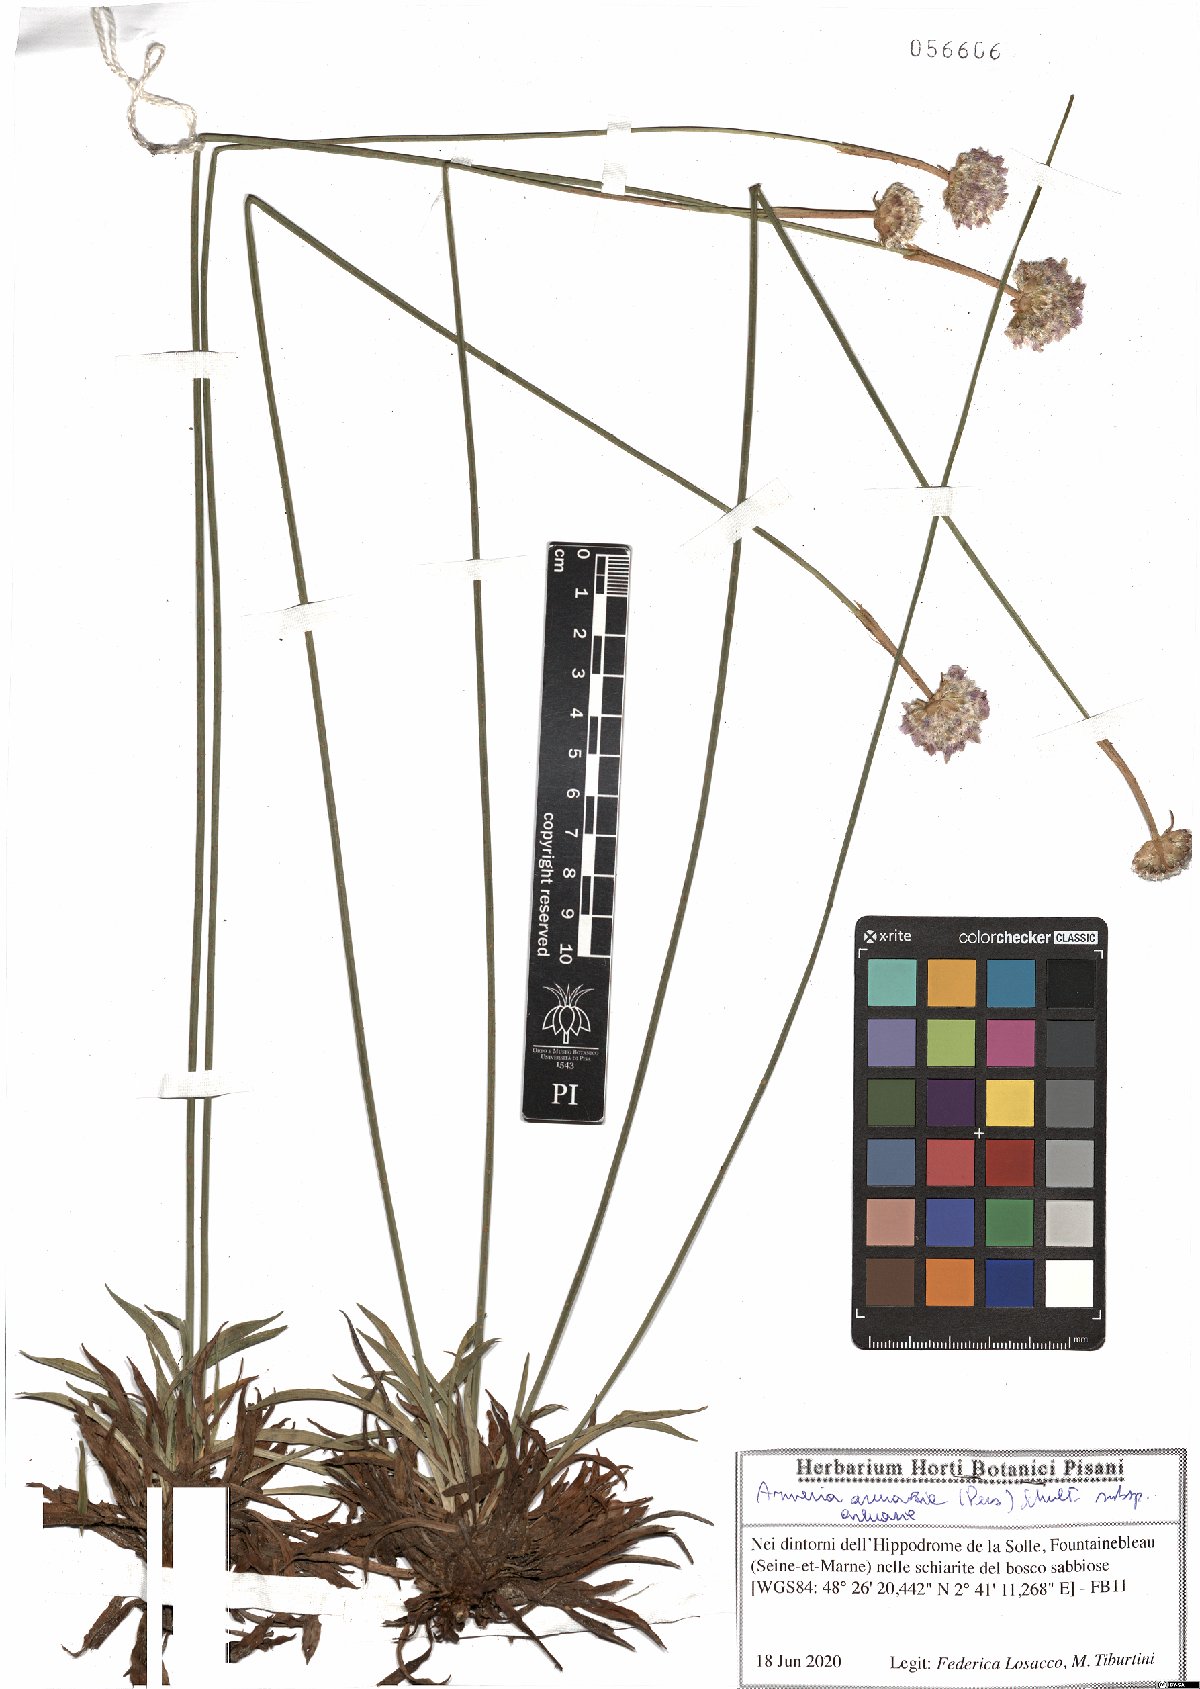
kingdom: Plantae
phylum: Tracheophyta
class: Magnoliopsida
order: Caryophyllales
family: Plumbaginaceae
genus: Armeria
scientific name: Armeria arenaria
